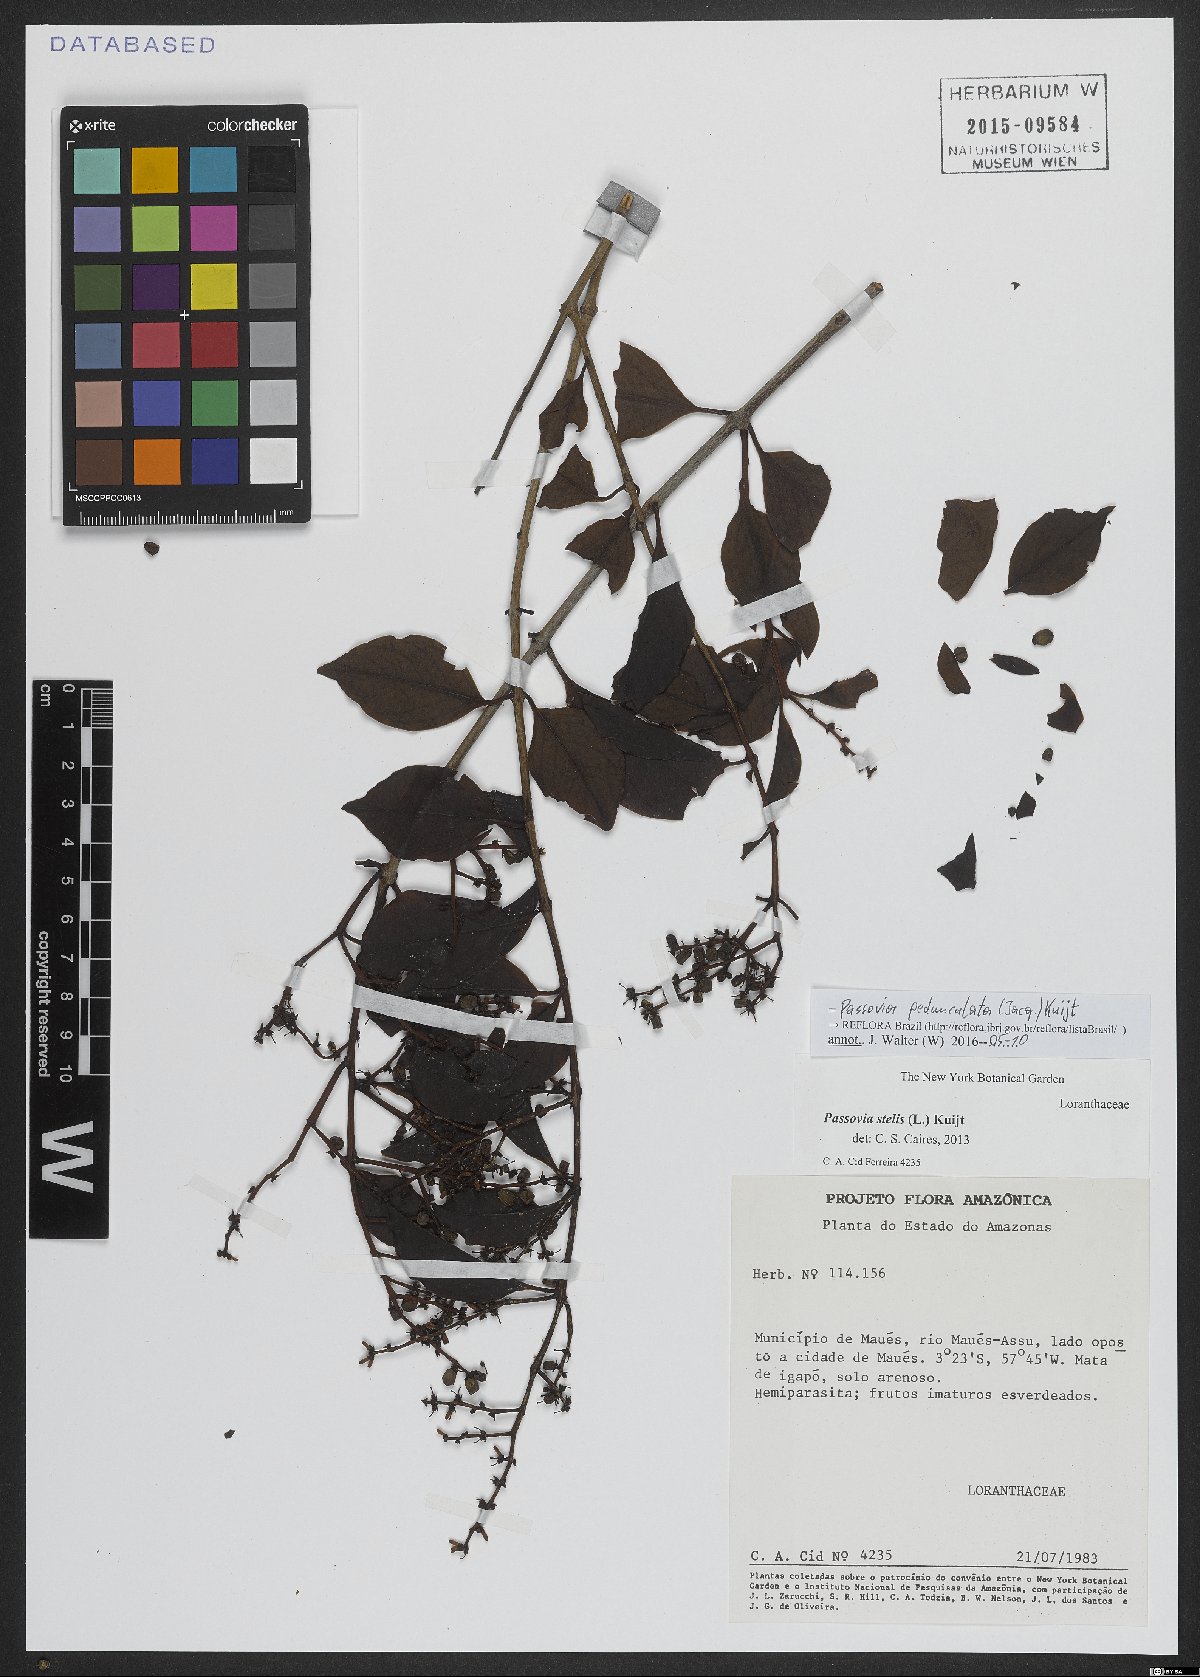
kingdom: Plantae
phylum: Tracheophyta
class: Magnoliopsida
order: Santalales
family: Loranthaceae
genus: Passovia
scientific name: Passovia pedunculata
